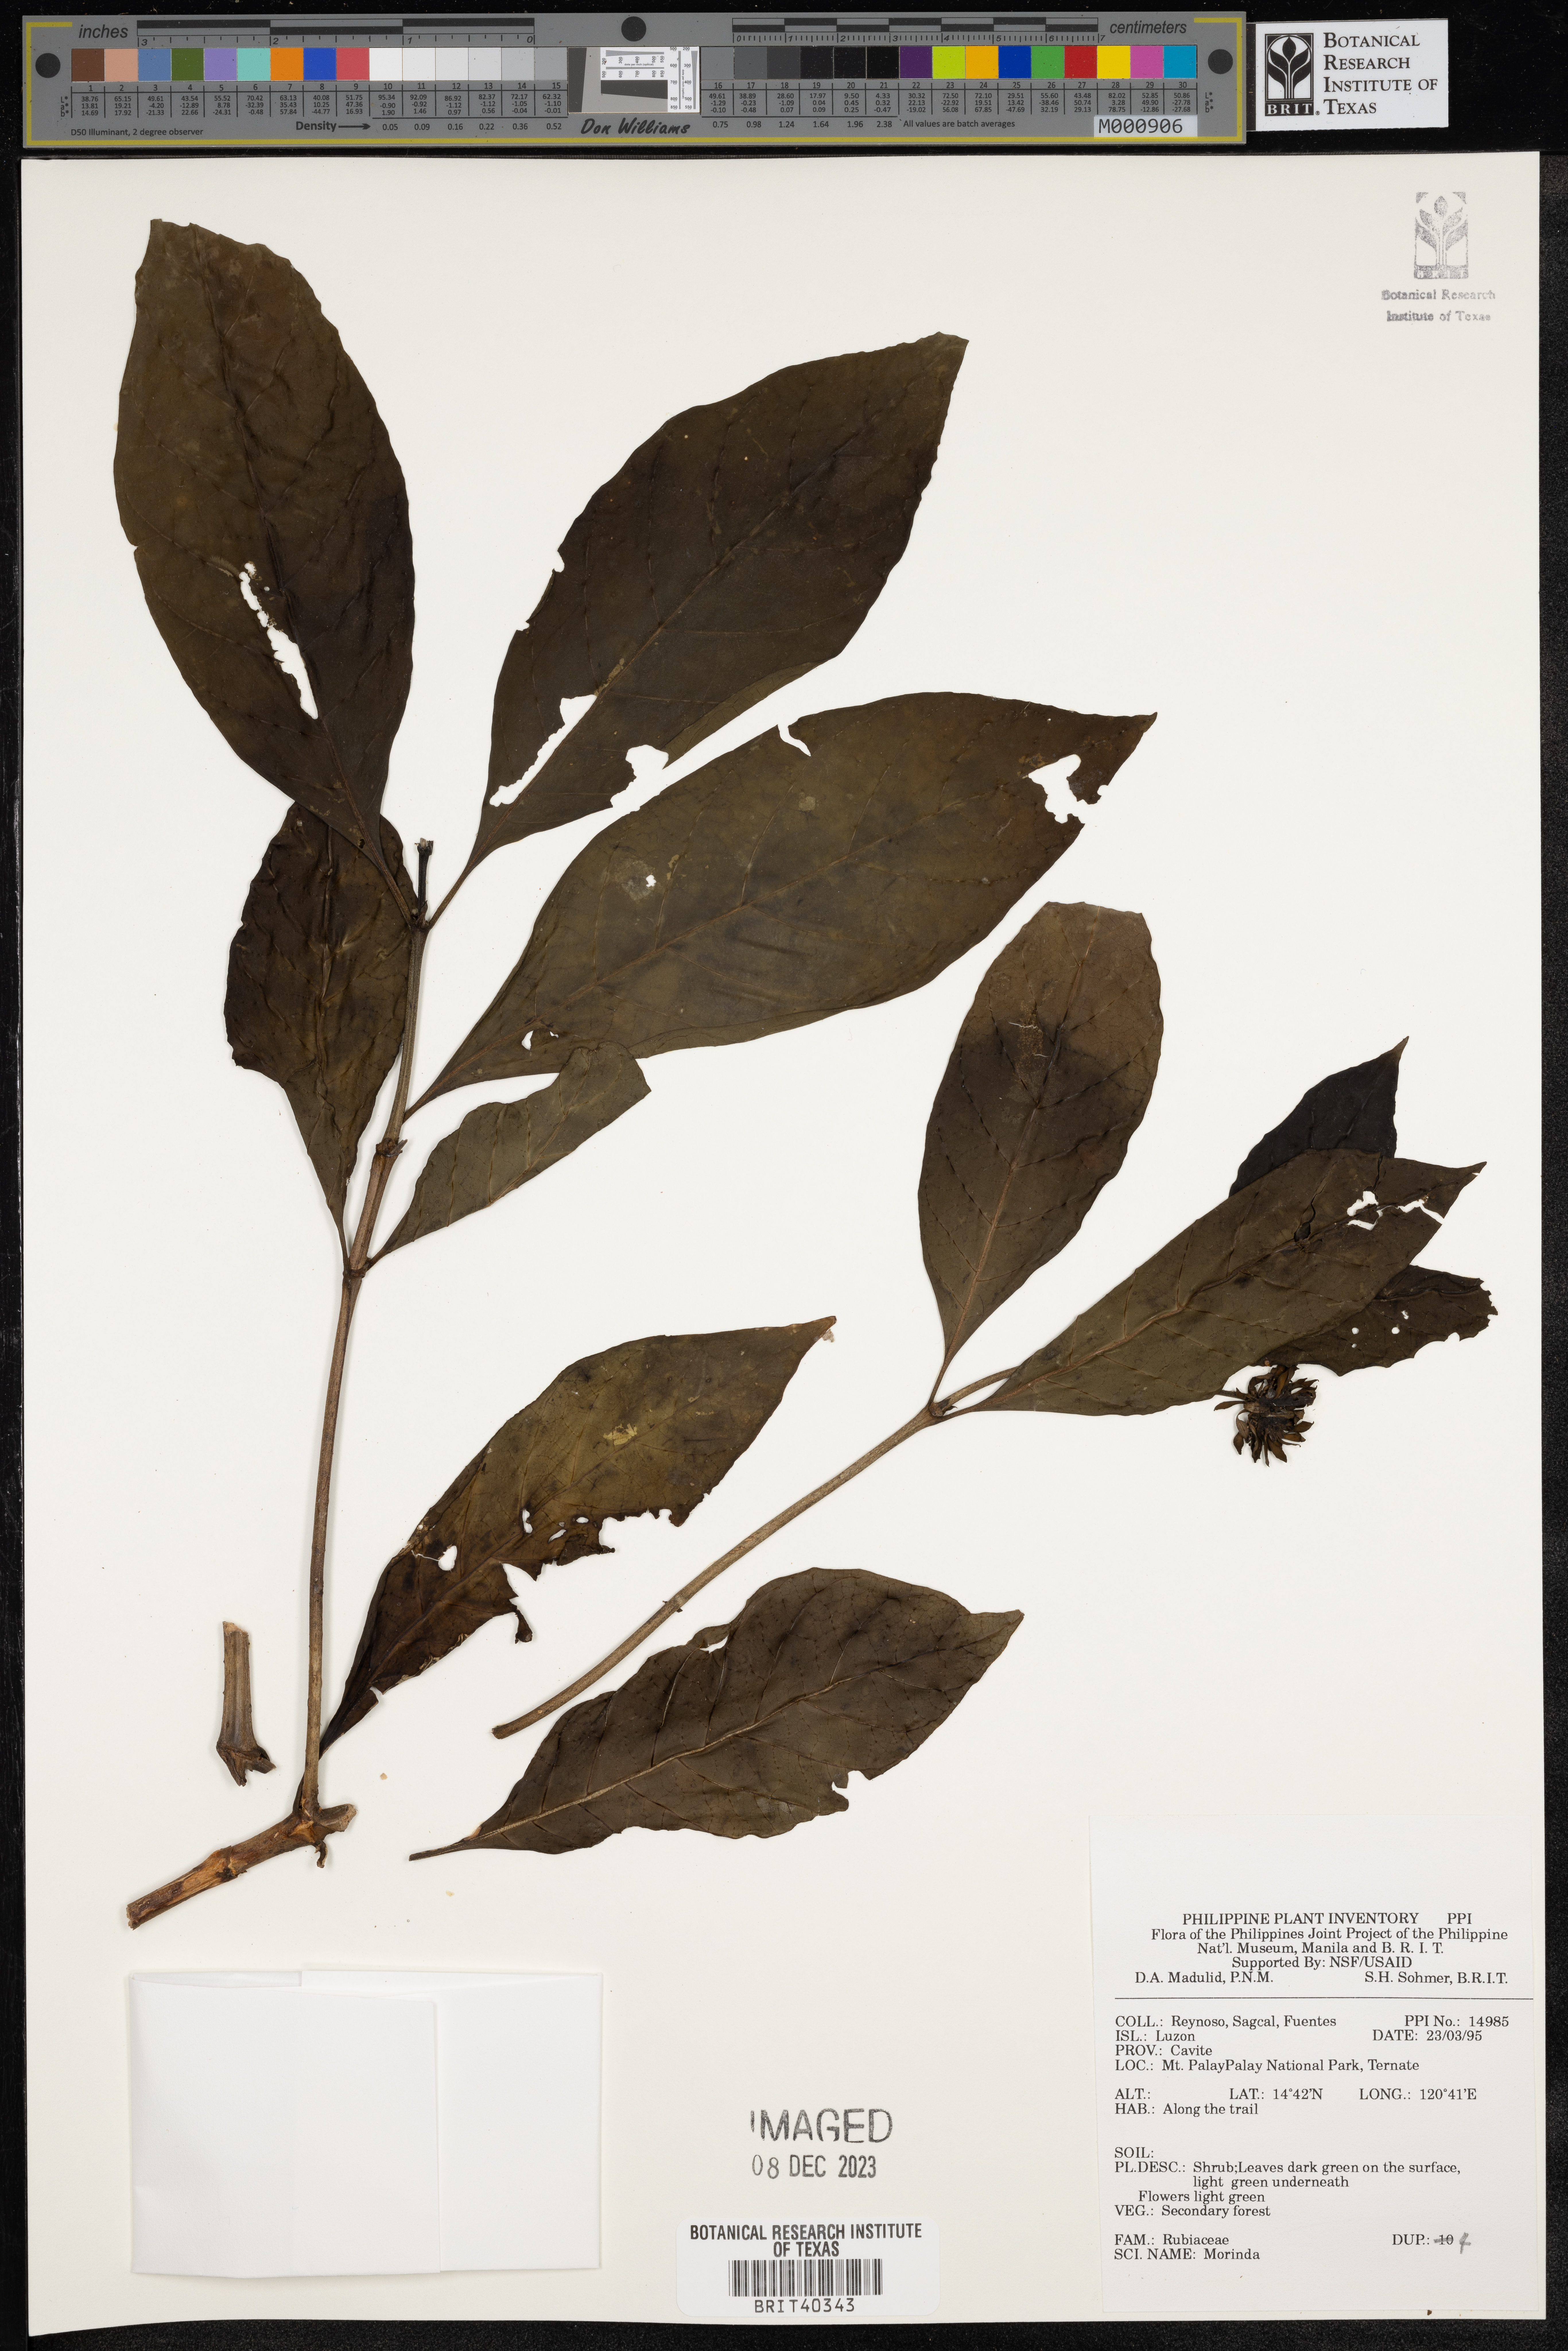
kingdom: Plantae
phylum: Tracheophyta
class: Magnoliopsida
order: Gentianales
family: Rubiaceae
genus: Morinda
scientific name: Morinda
